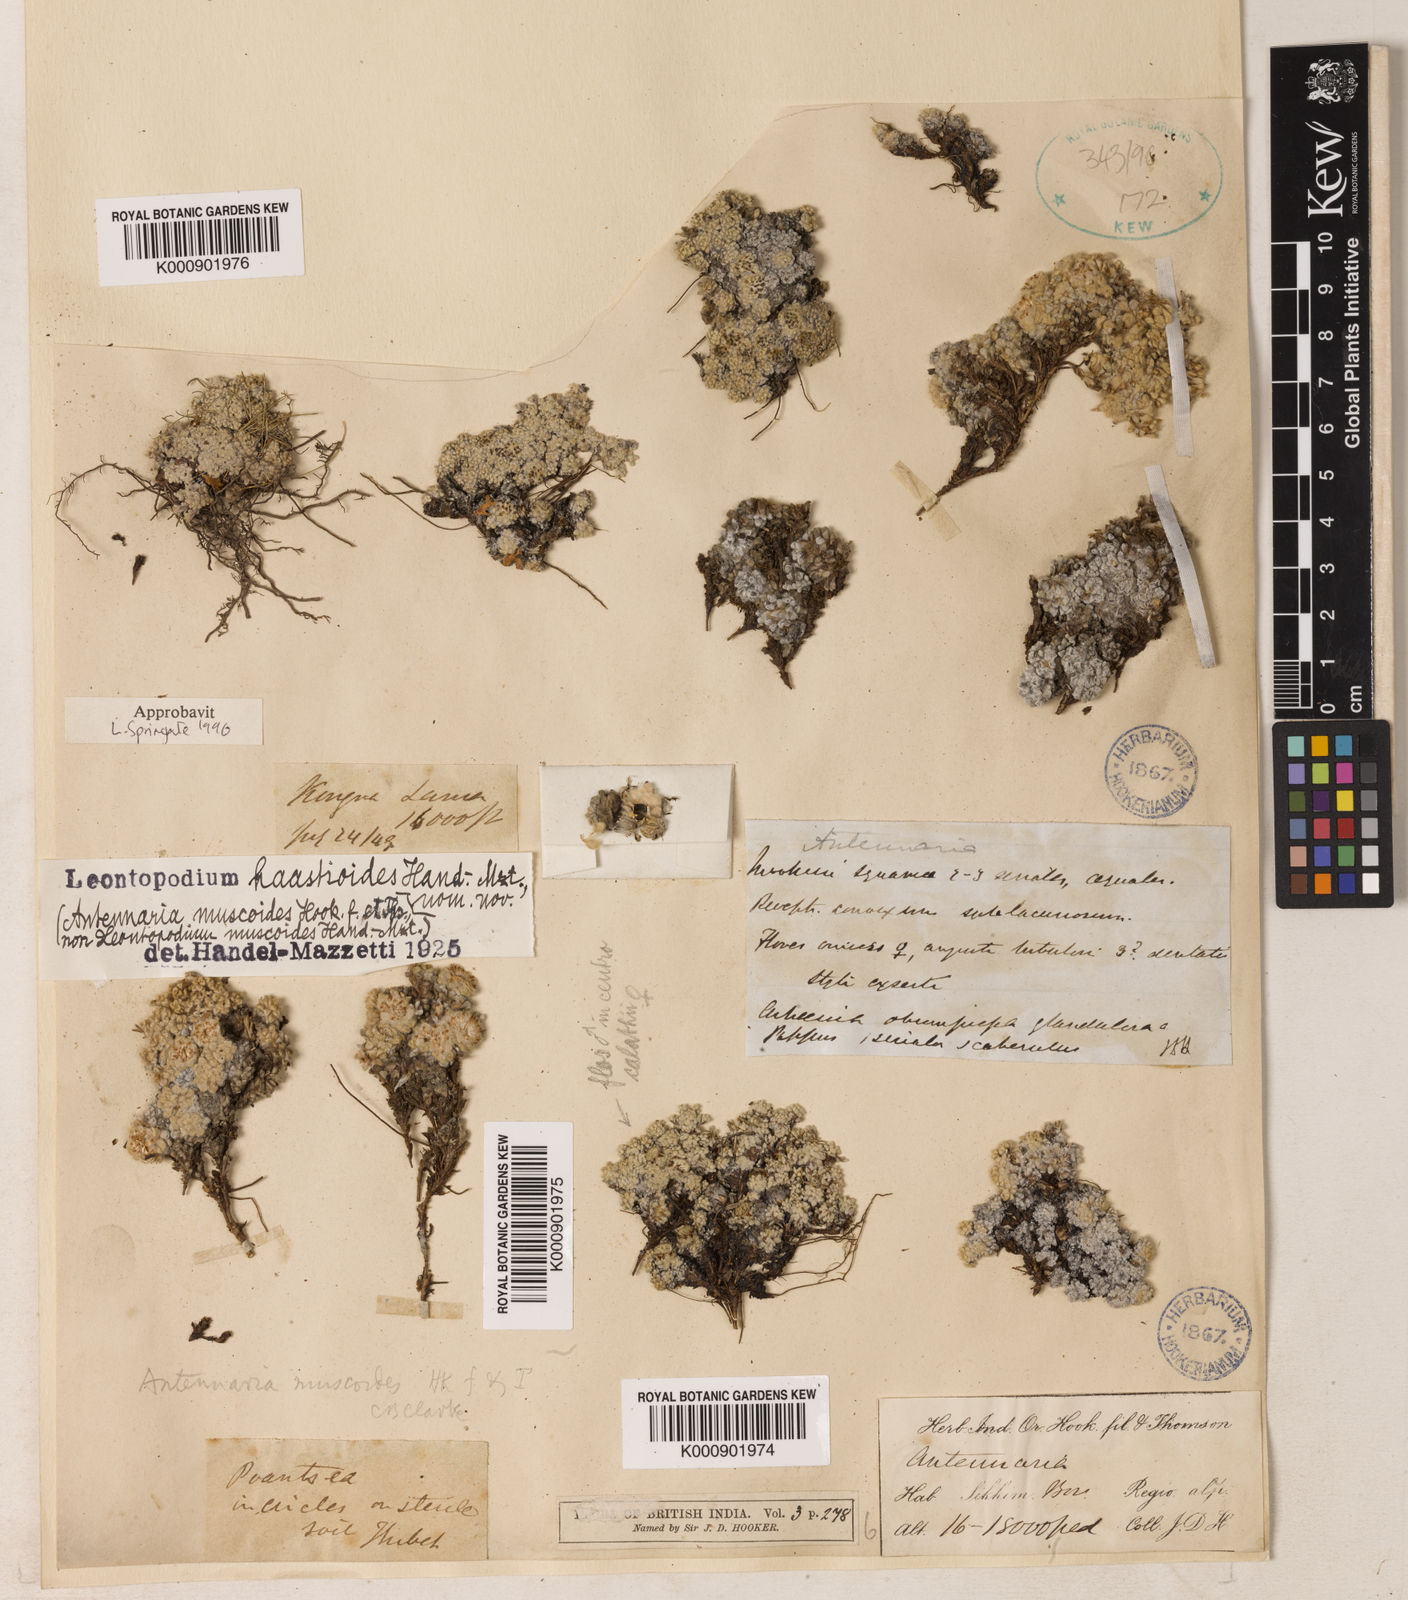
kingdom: Plantae
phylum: Tracheophyta
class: Magnoliopsida
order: Asterales
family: Asteraceae
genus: Leontopodium
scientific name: Leontopodium haastioides
